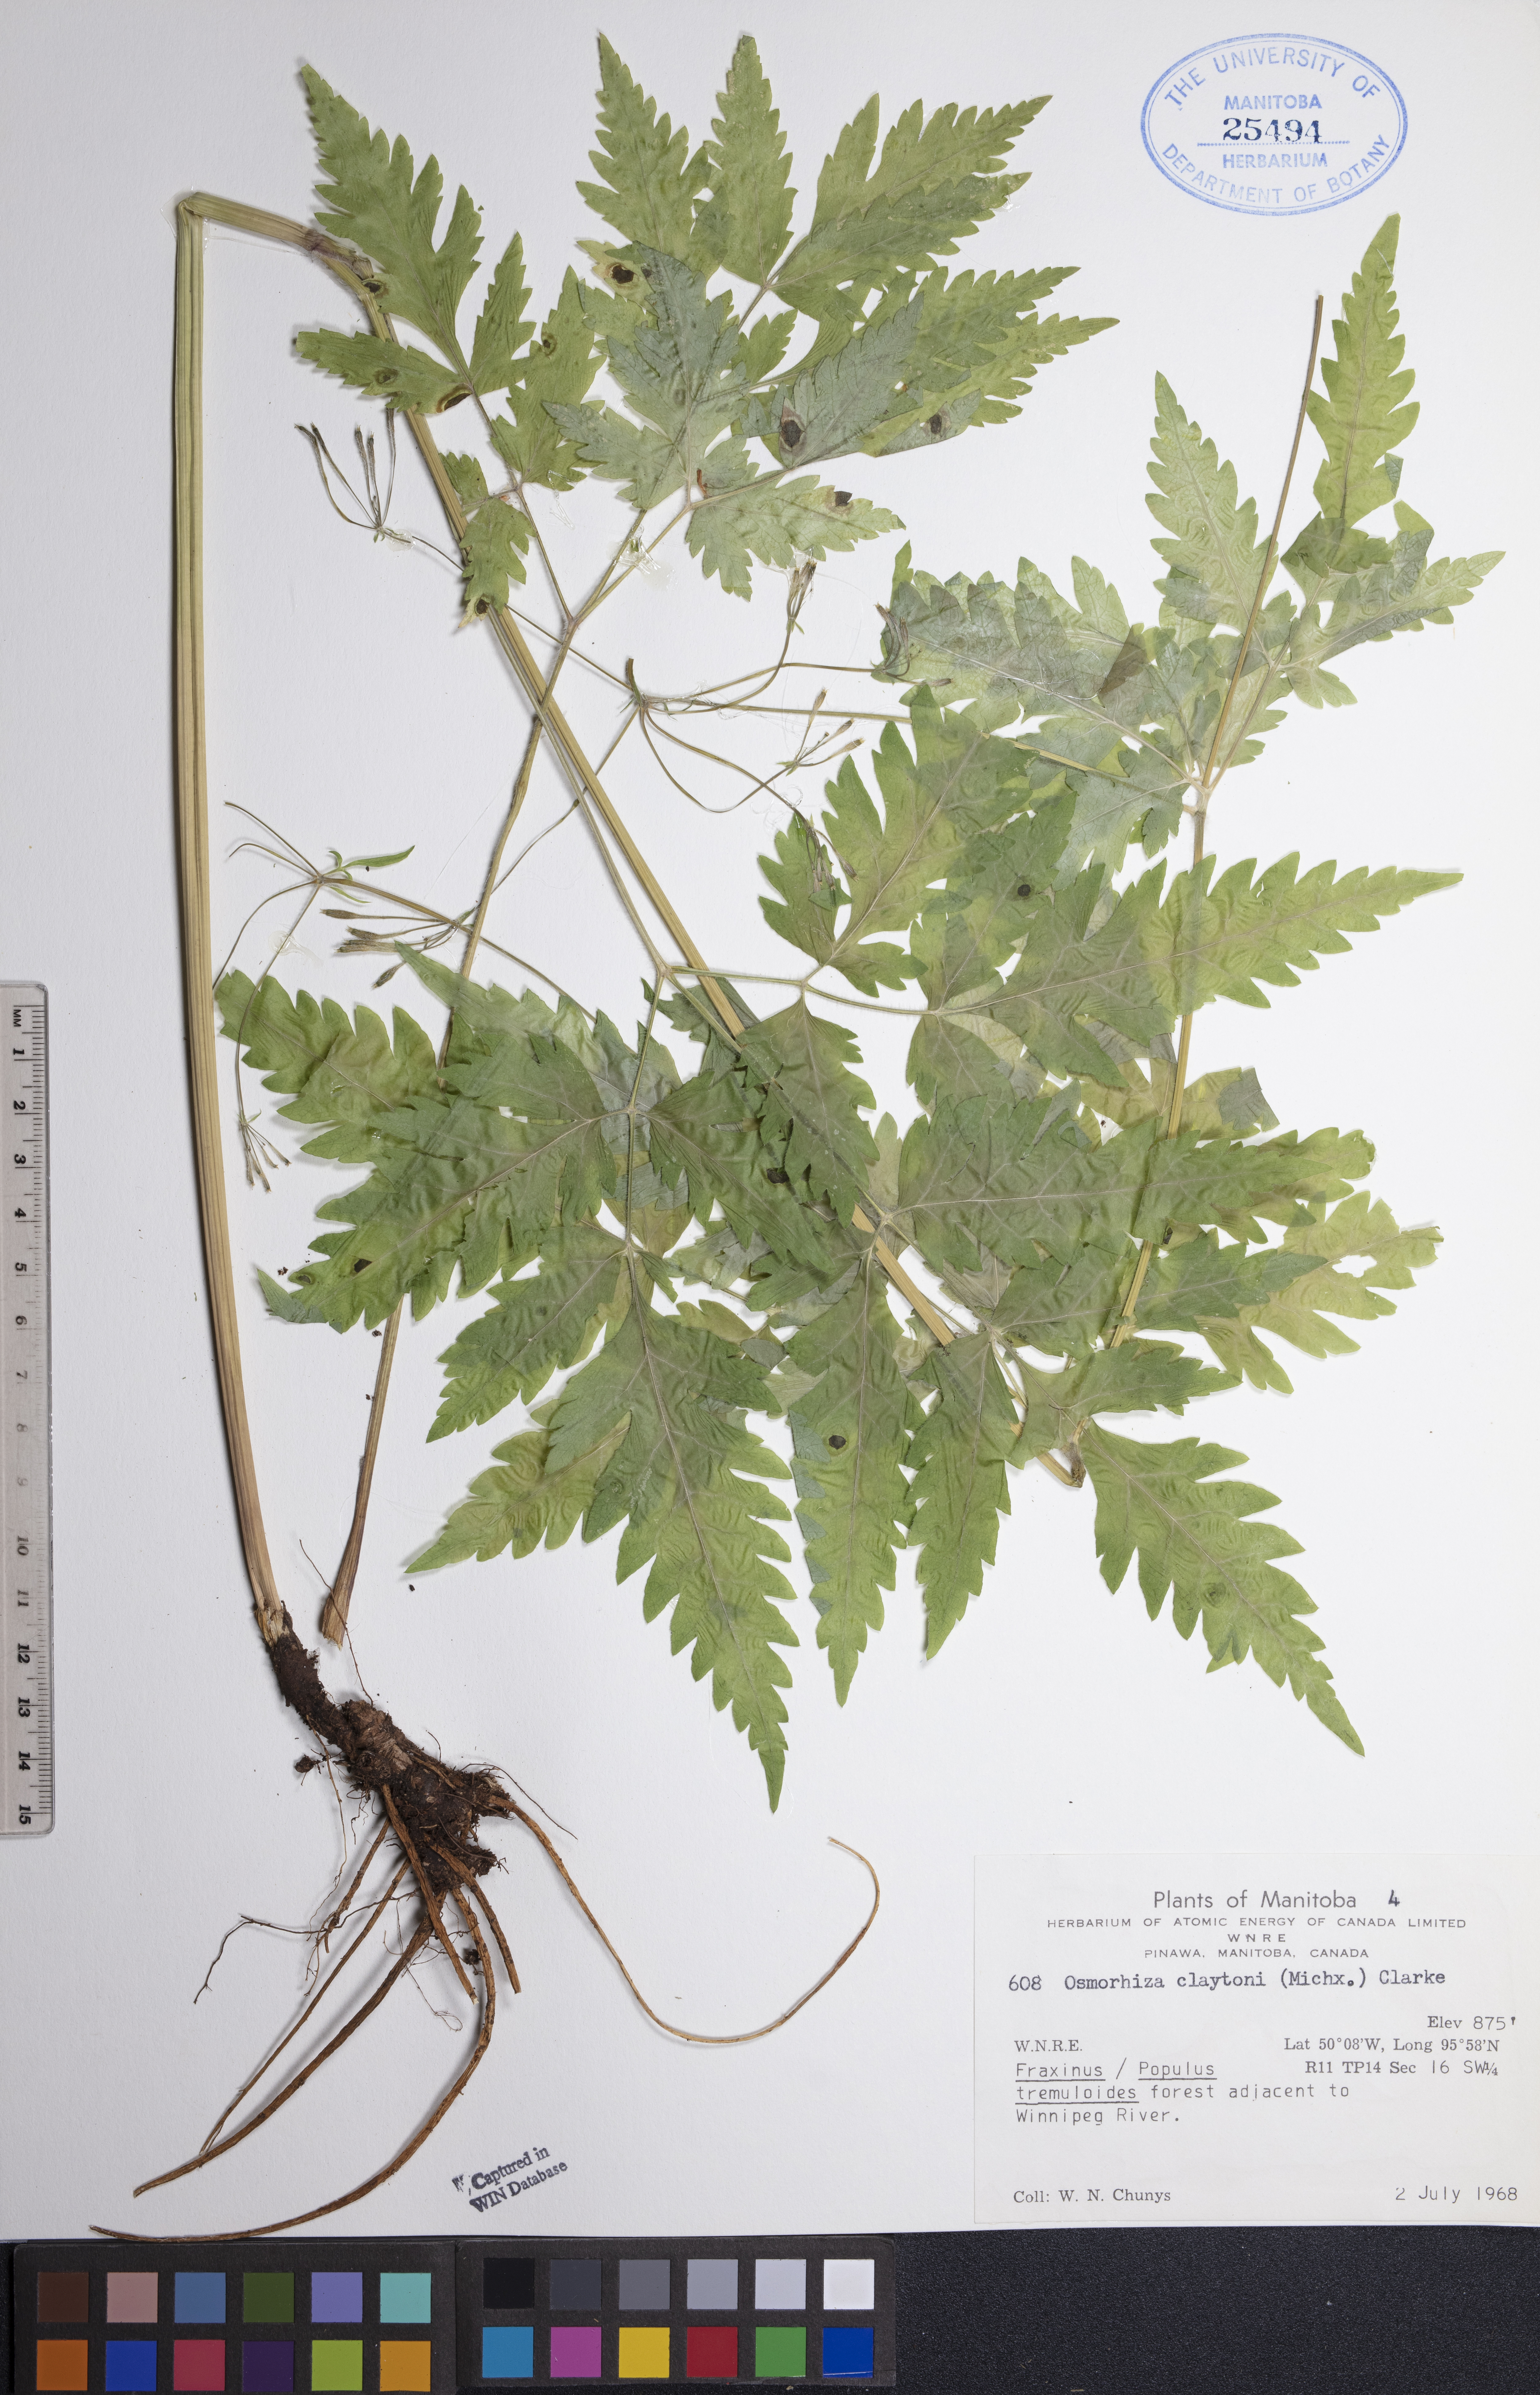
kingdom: Plantae
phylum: Tracheophyta
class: Magnoliopsida
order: Apiales
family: Apiaceae
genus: Osmorhiza
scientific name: Osmorhiza claytonii
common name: Hairy sweet cicely
